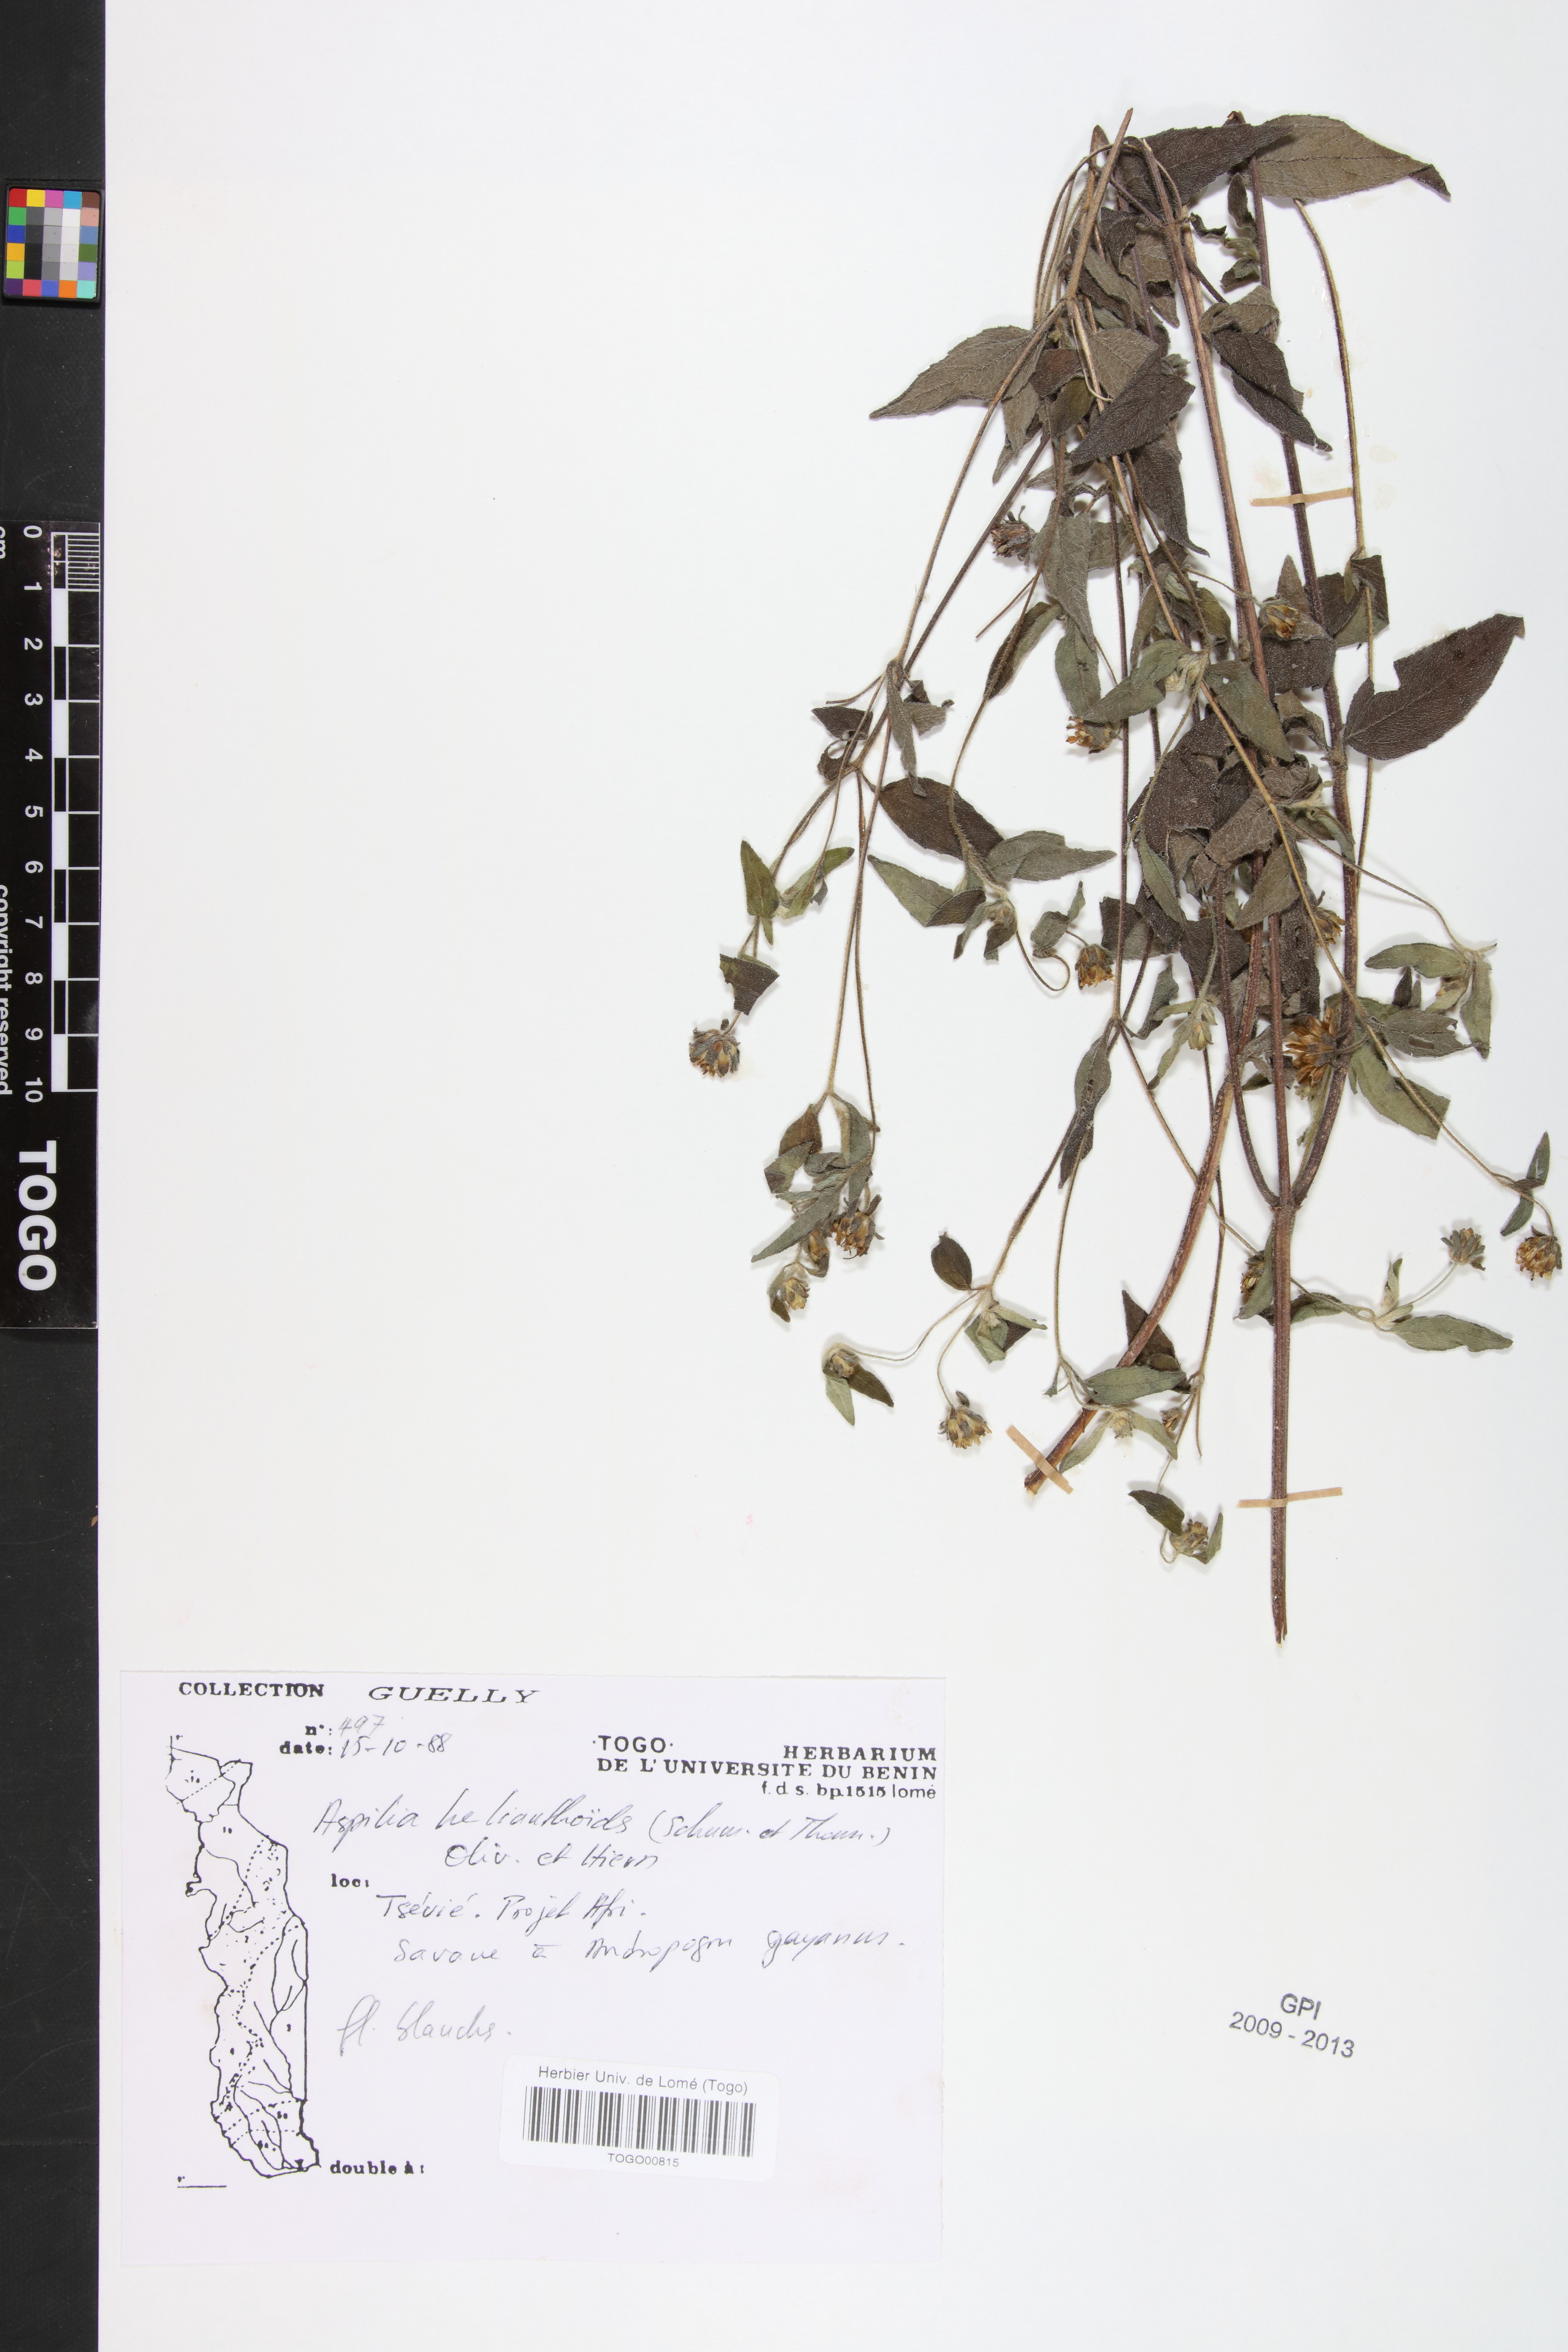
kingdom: Plantae
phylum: Tracheophyta
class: Magnoliopsida
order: Asterales
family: Asteraceae
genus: Aspilia
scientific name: Aspilia helianthoides
